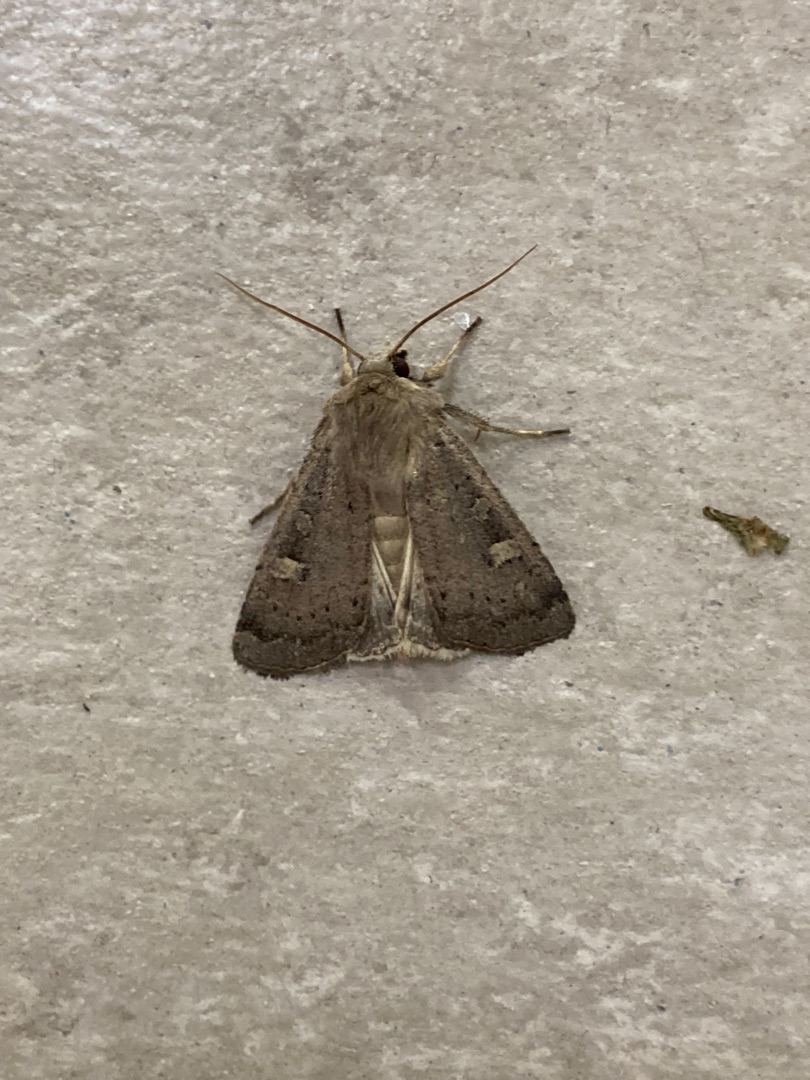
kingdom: Animalia
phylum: Arthropoda
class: Insecta
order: Lepidoptera
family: Noctuidae
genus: Xestia
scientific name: Xestia xanthographa
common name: Gulmærket glansugle
